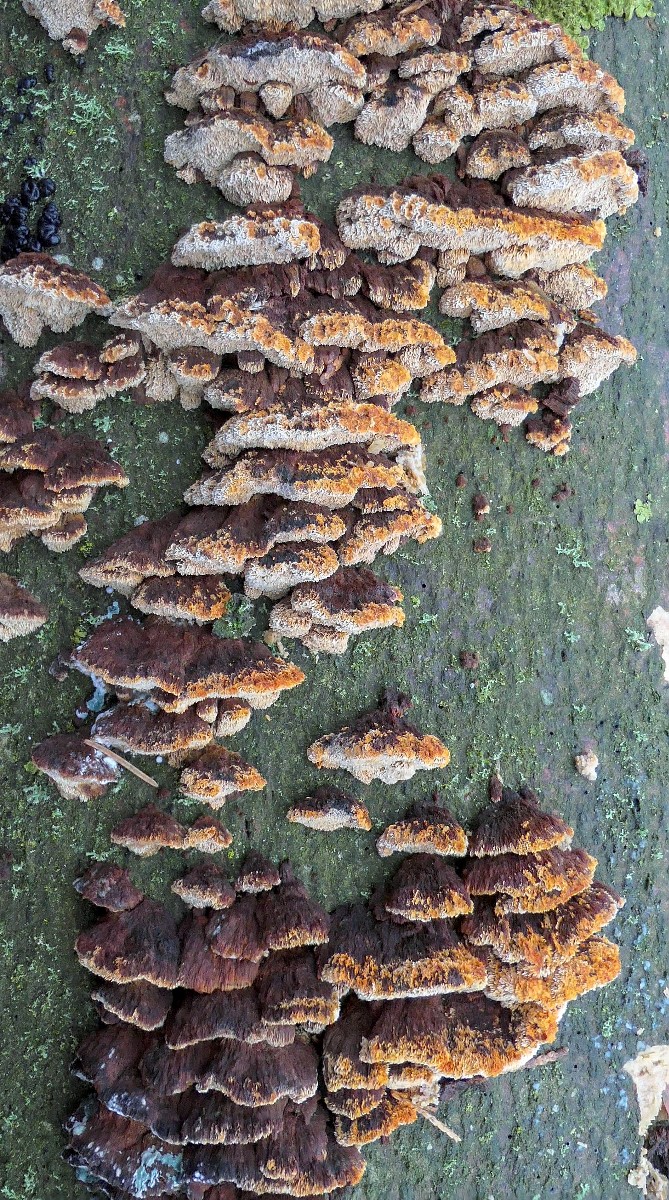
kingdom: Fungi
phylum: Basidiomycota
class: Agaricomycetes
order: Hymenochaetales
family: Hymenochaetaceae
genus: Mensularia
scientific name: Mensularia nodulosa
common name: bøge-spejlporesvamp
